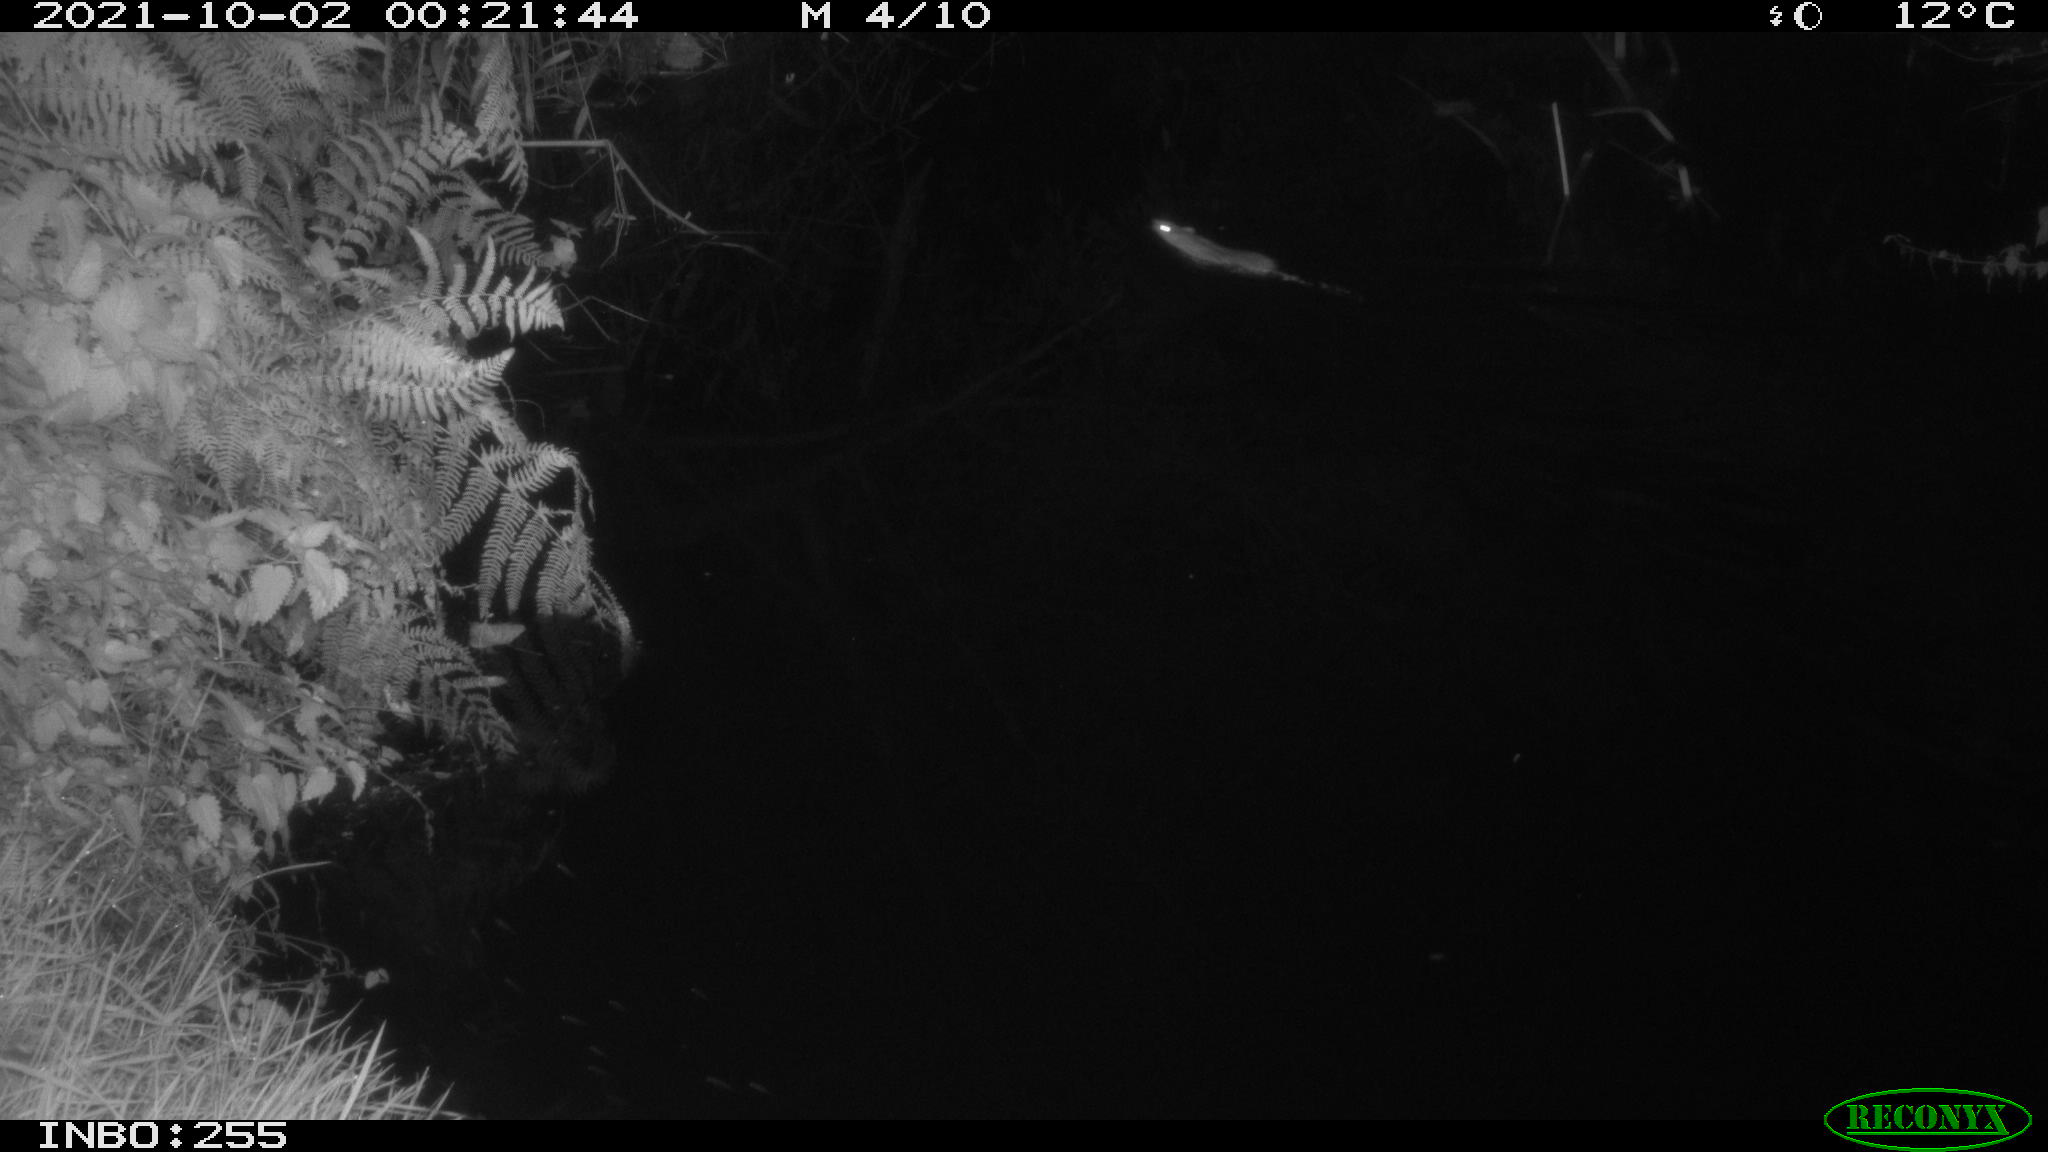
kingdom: Animalia
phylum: Chordata
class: Mammalia
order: Rodentia
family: Muridae
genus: Rattus
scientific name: Rattus norvegicus
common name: Brown rat
